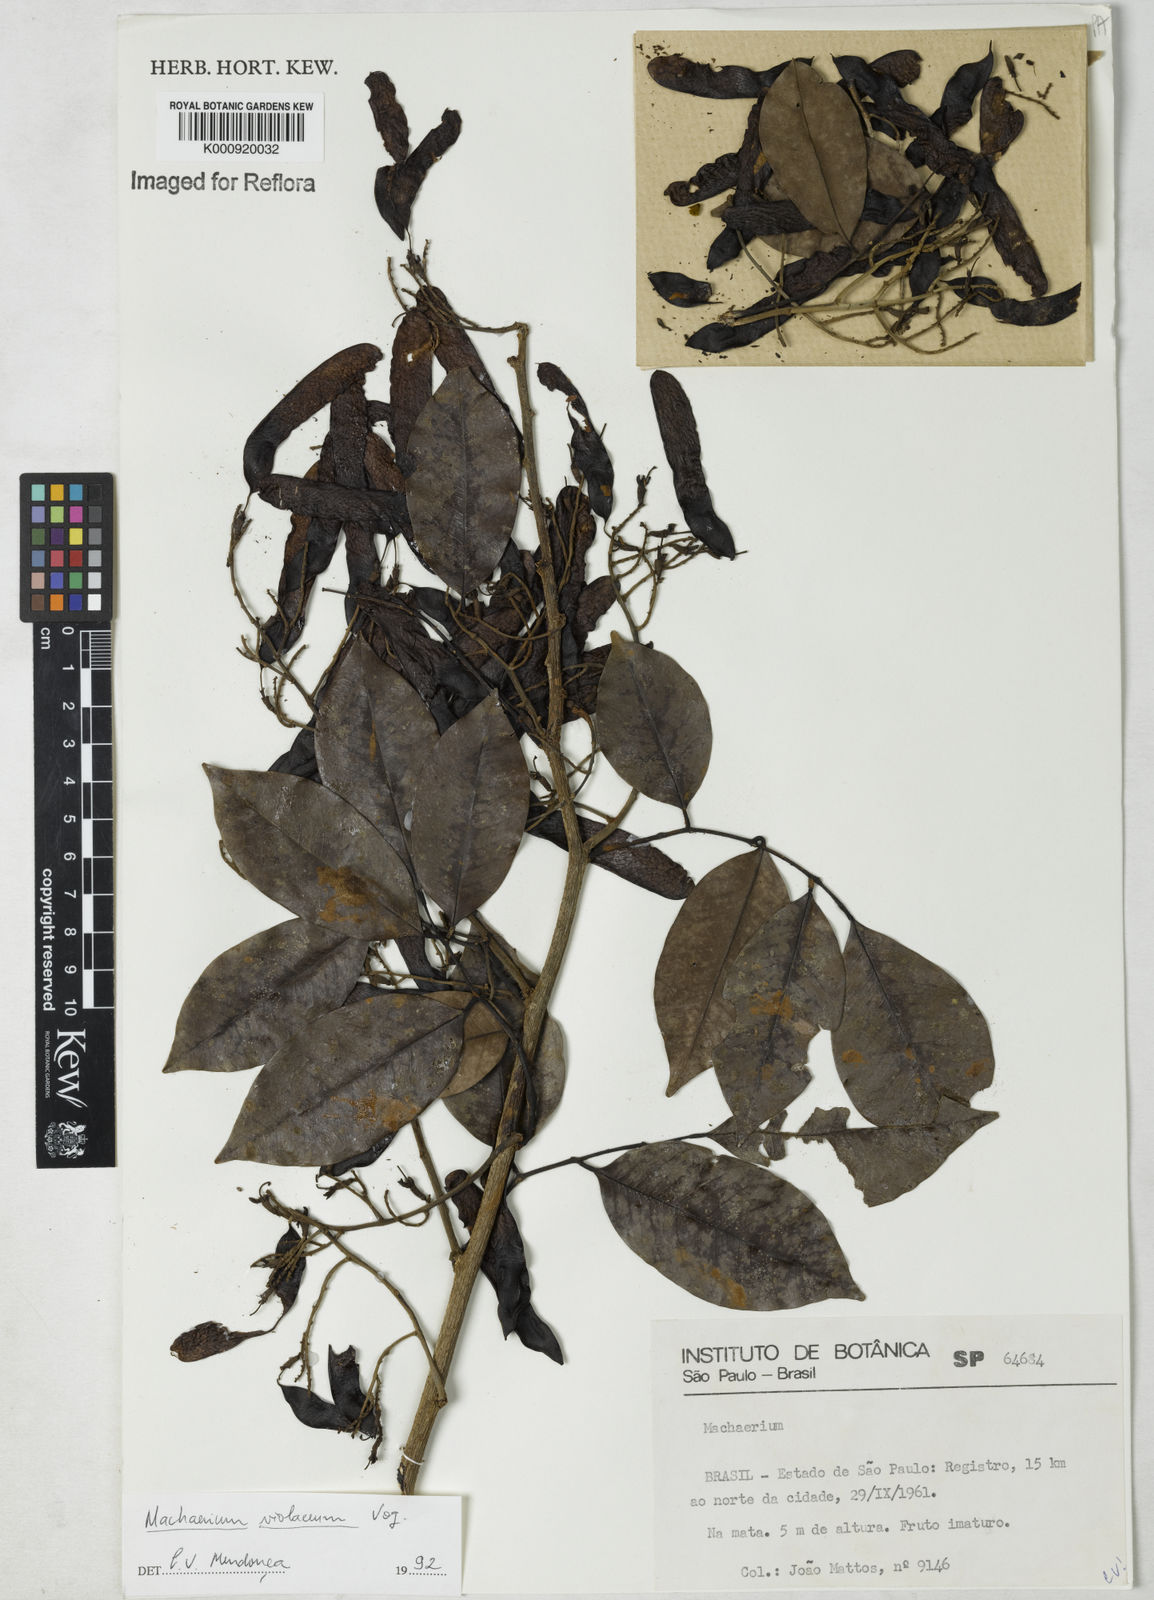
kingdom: Plantae
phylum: Tracheophyta
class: Magnoliopsida
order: Fabales
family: Fabaceae
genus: Machaerium
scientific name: Machaerium debile
